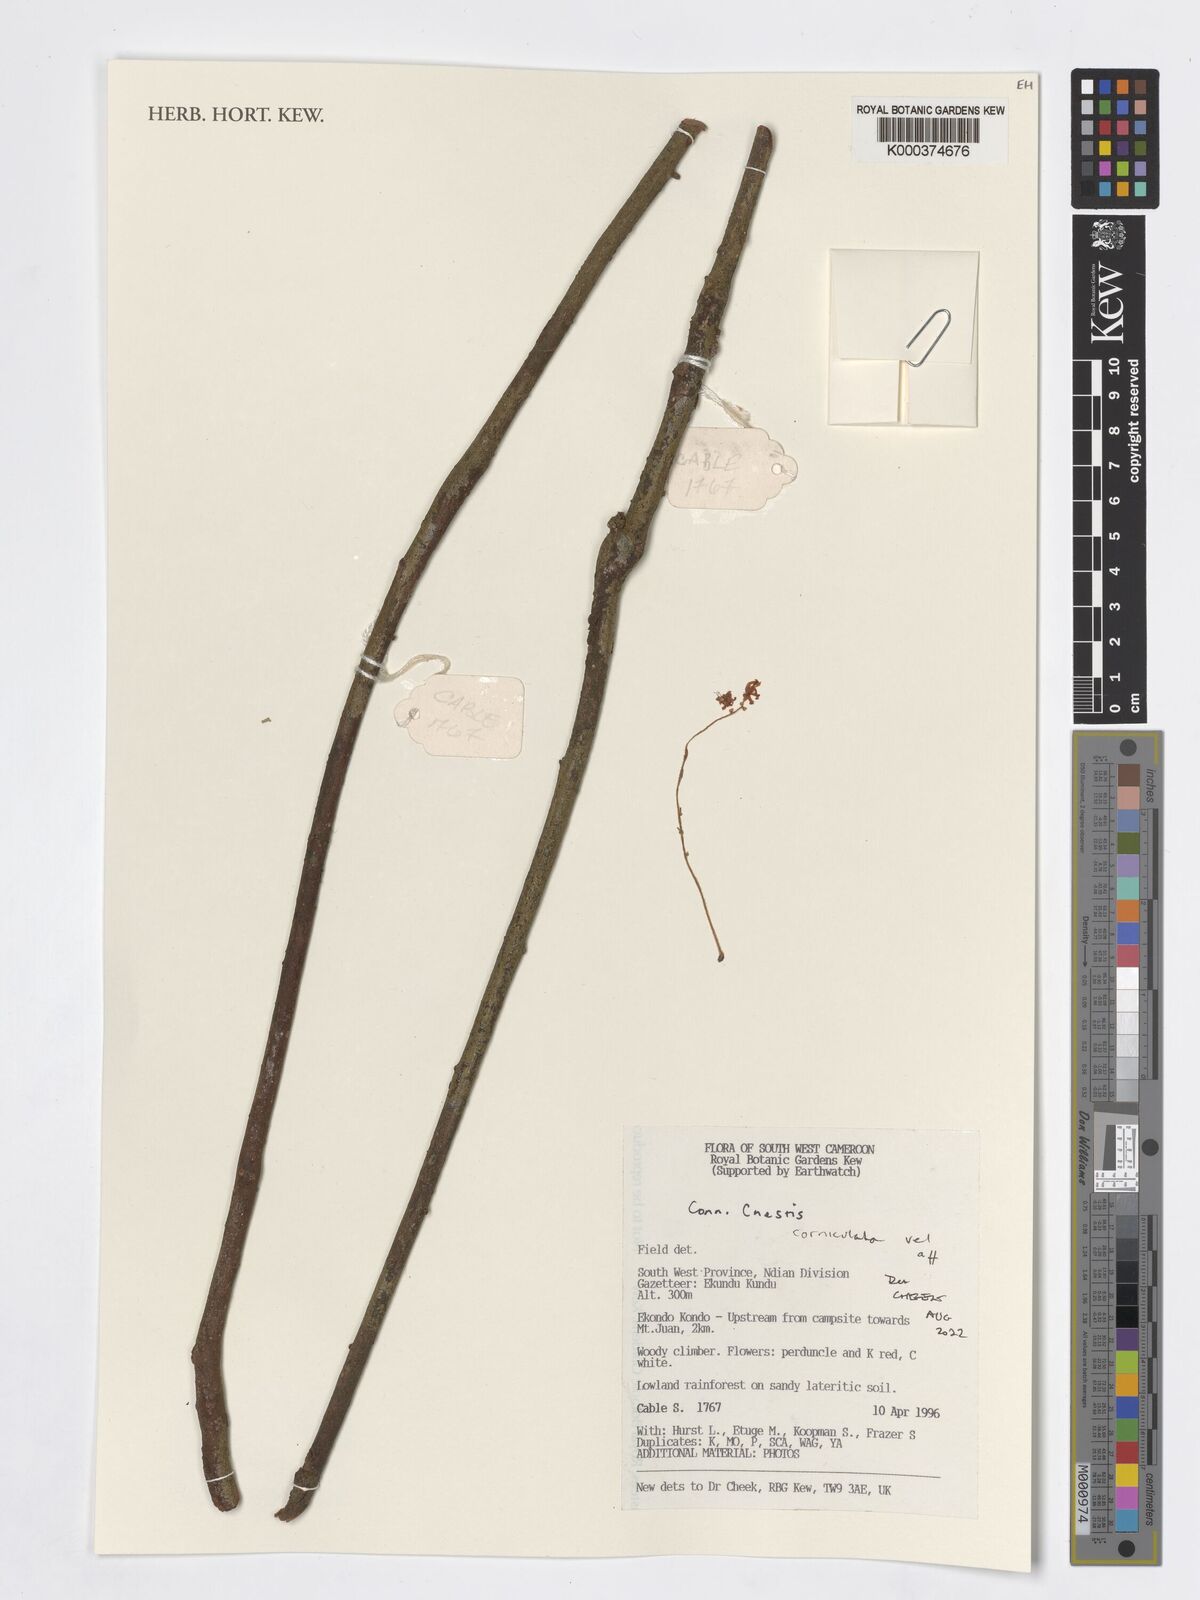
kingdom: Plantae
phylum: Tracheophyta
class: Magnoliopsida
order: Oxalidales
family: Connaraceae
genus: Cnestis
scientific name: Cnestis corniculata
